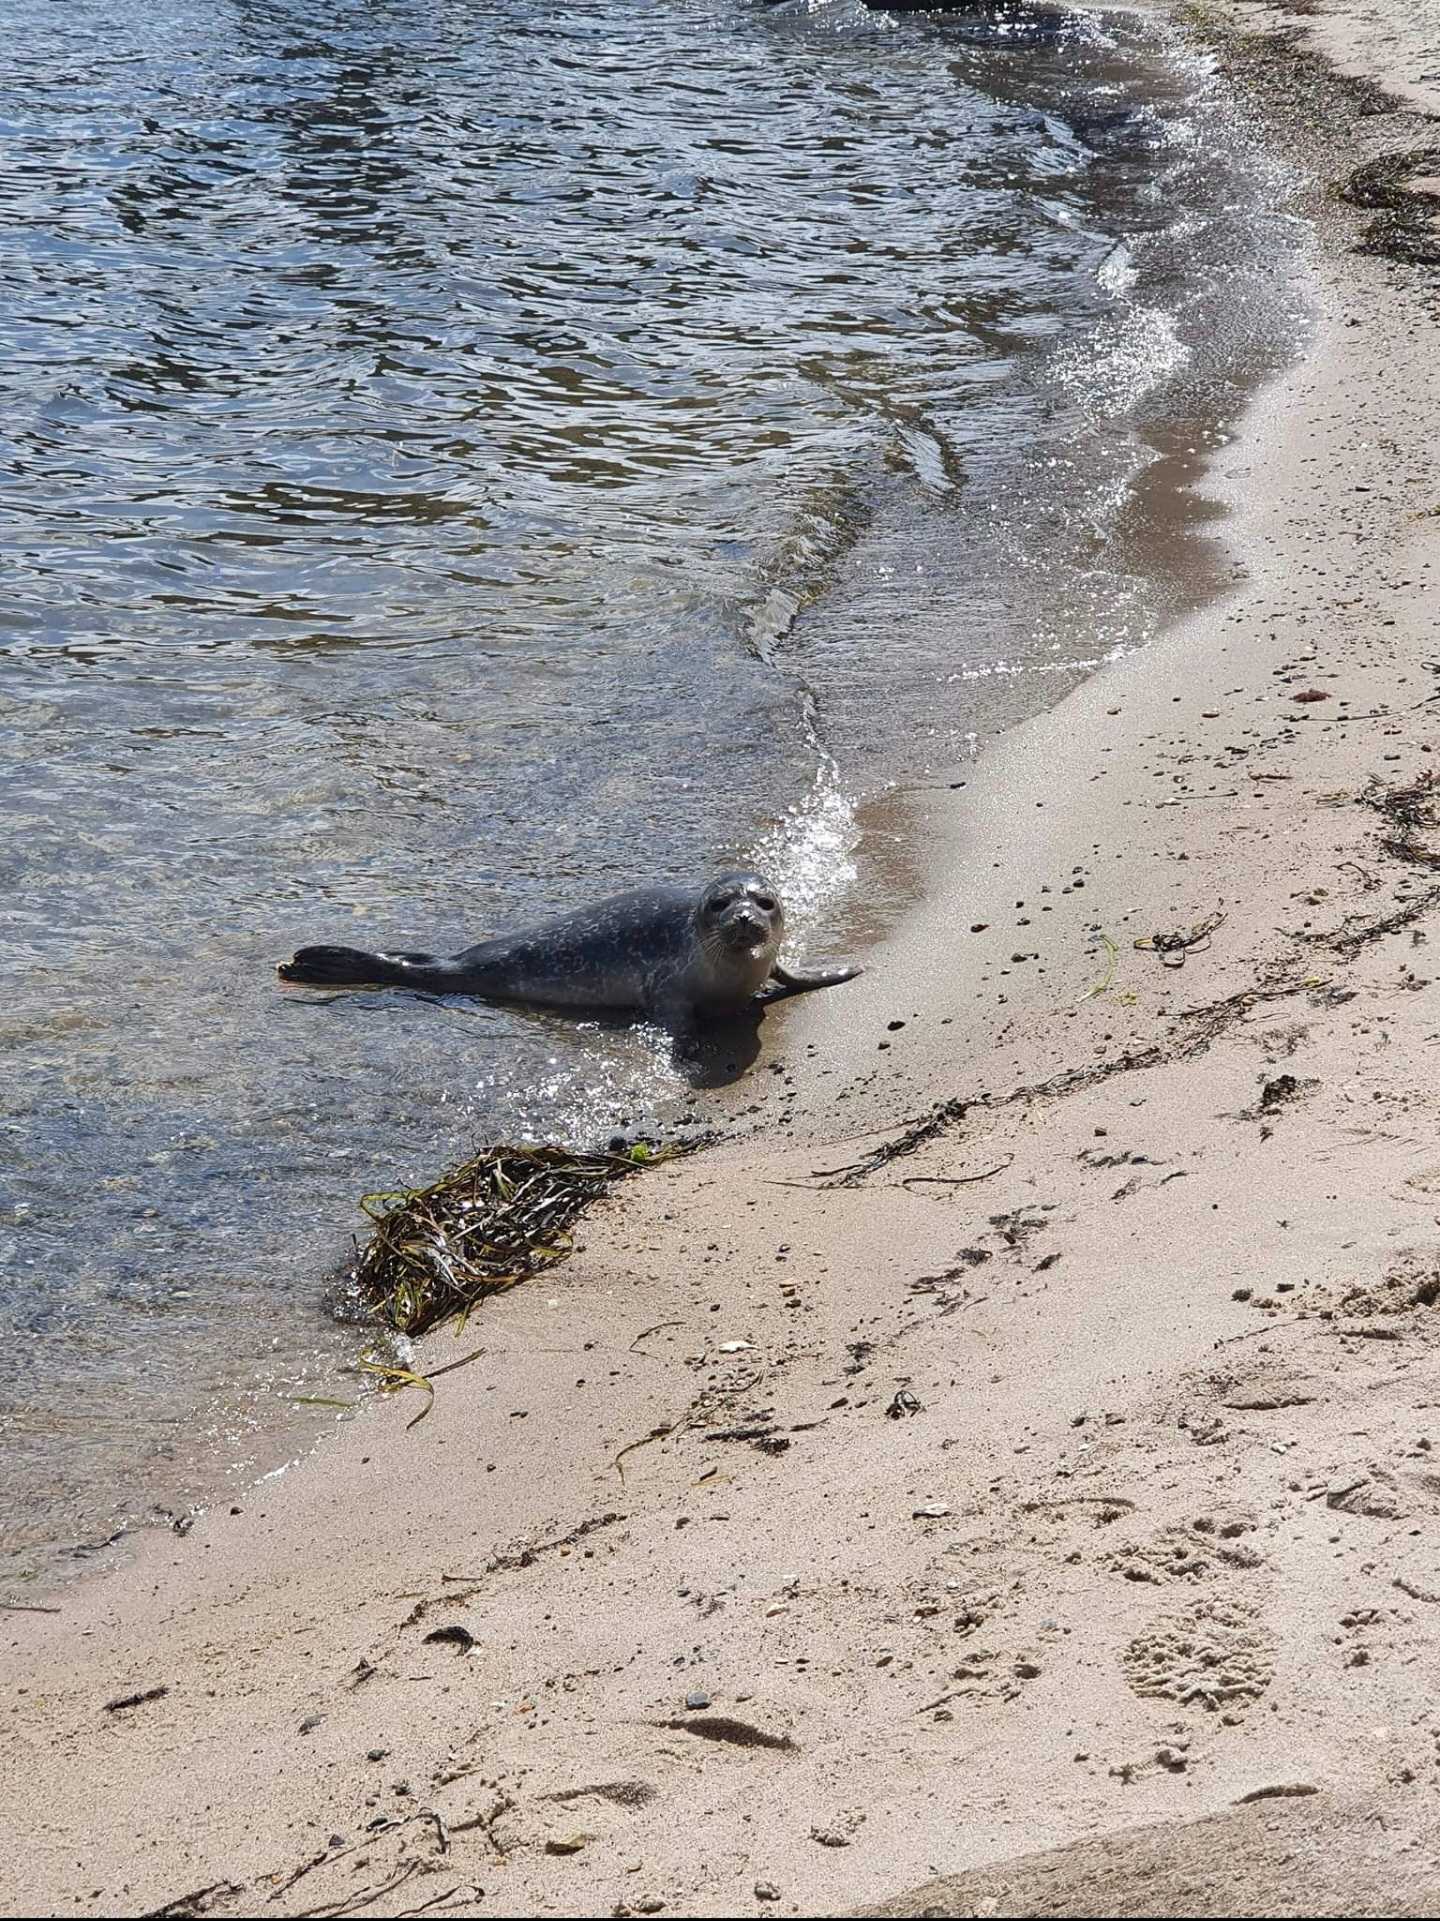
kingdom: Animalia
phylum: Chordata
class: Mammalia
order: Carnivora
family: Phocidae
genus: Phoca
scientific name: Phoca vitulina
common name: Spættet sæl
